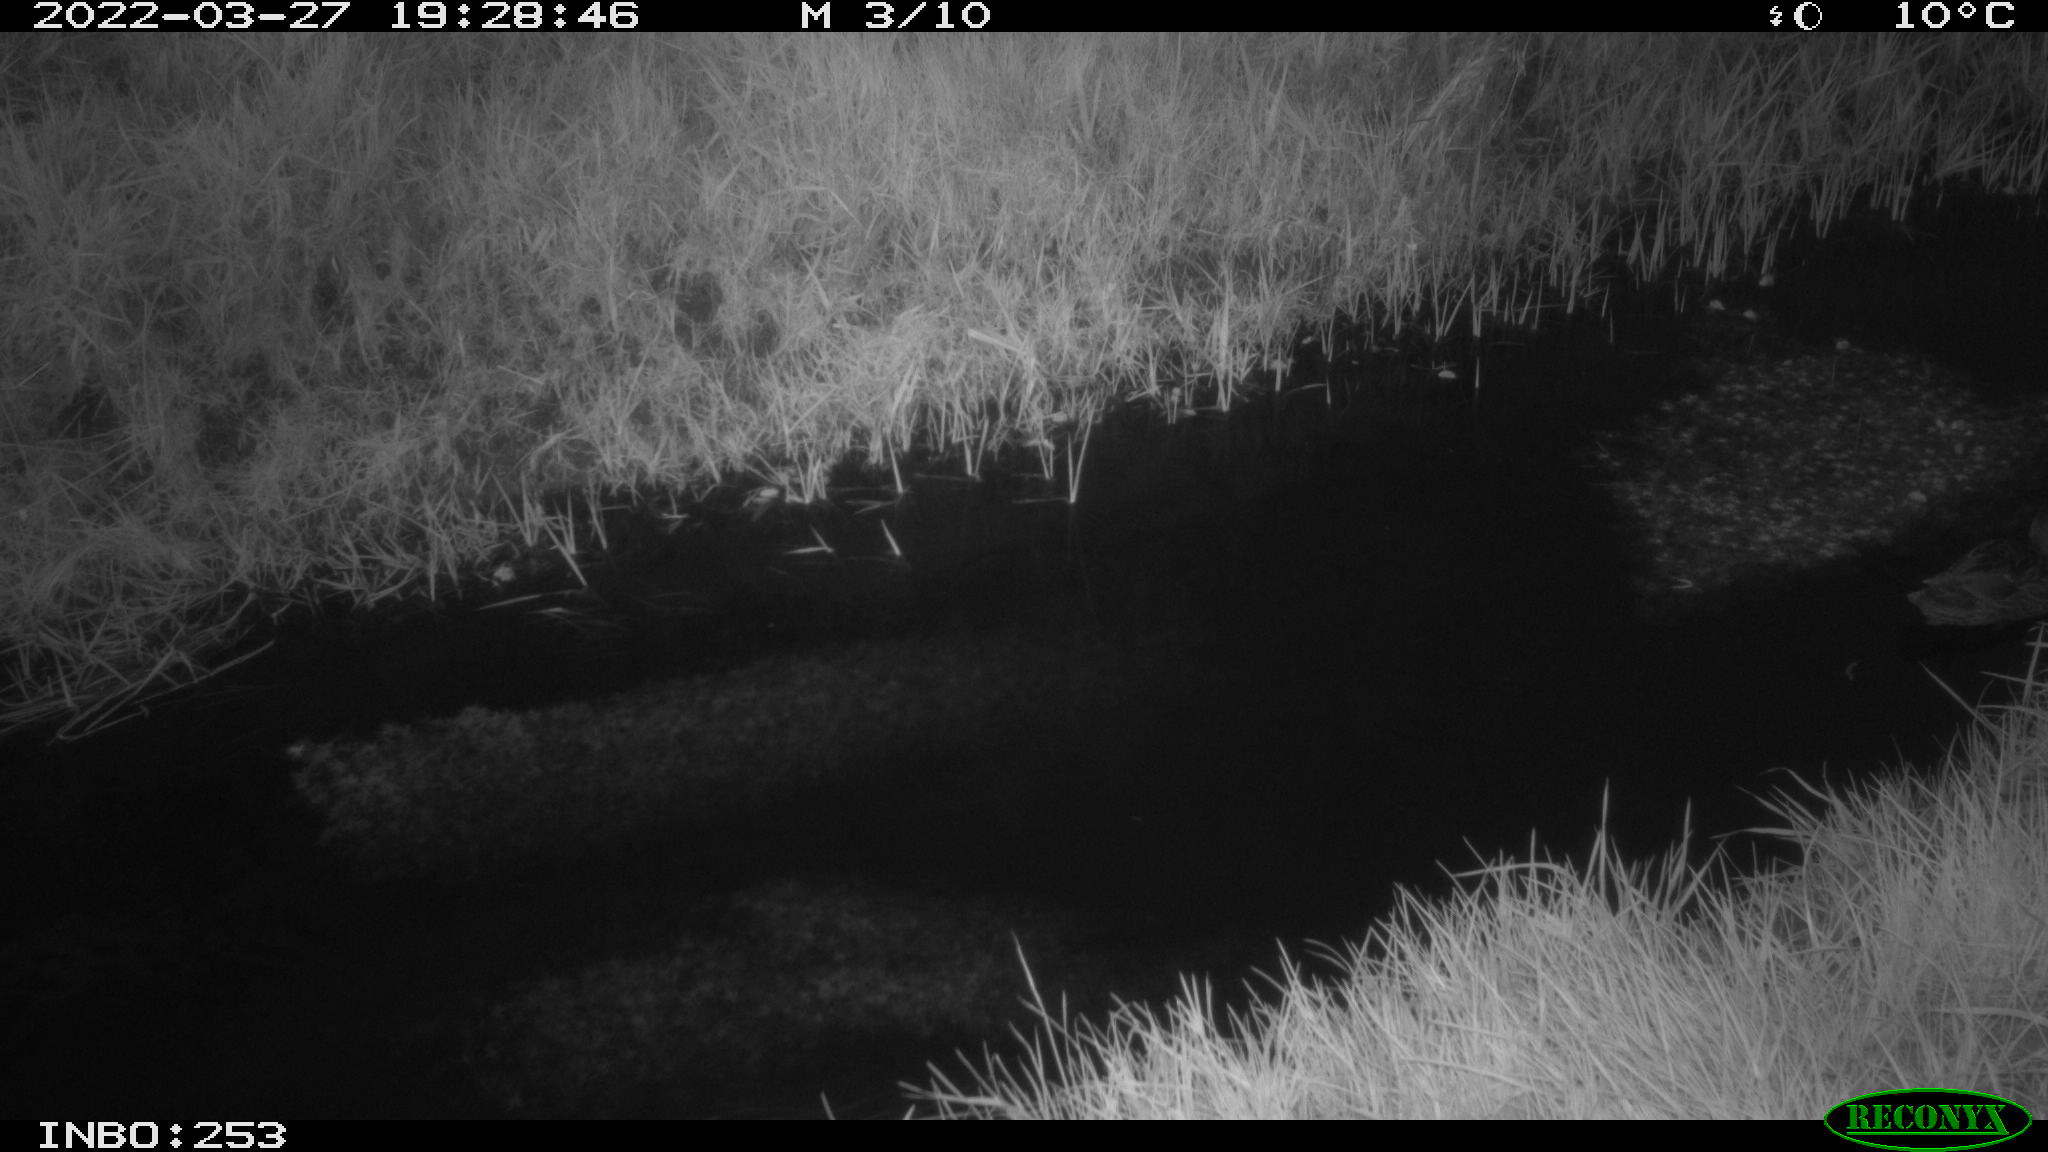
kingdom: Animalia
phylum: Chordata
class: Aves
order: Anseriformes
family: Anatidae
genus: Anas
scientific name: Anas platyrhynchos
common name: Mallard
